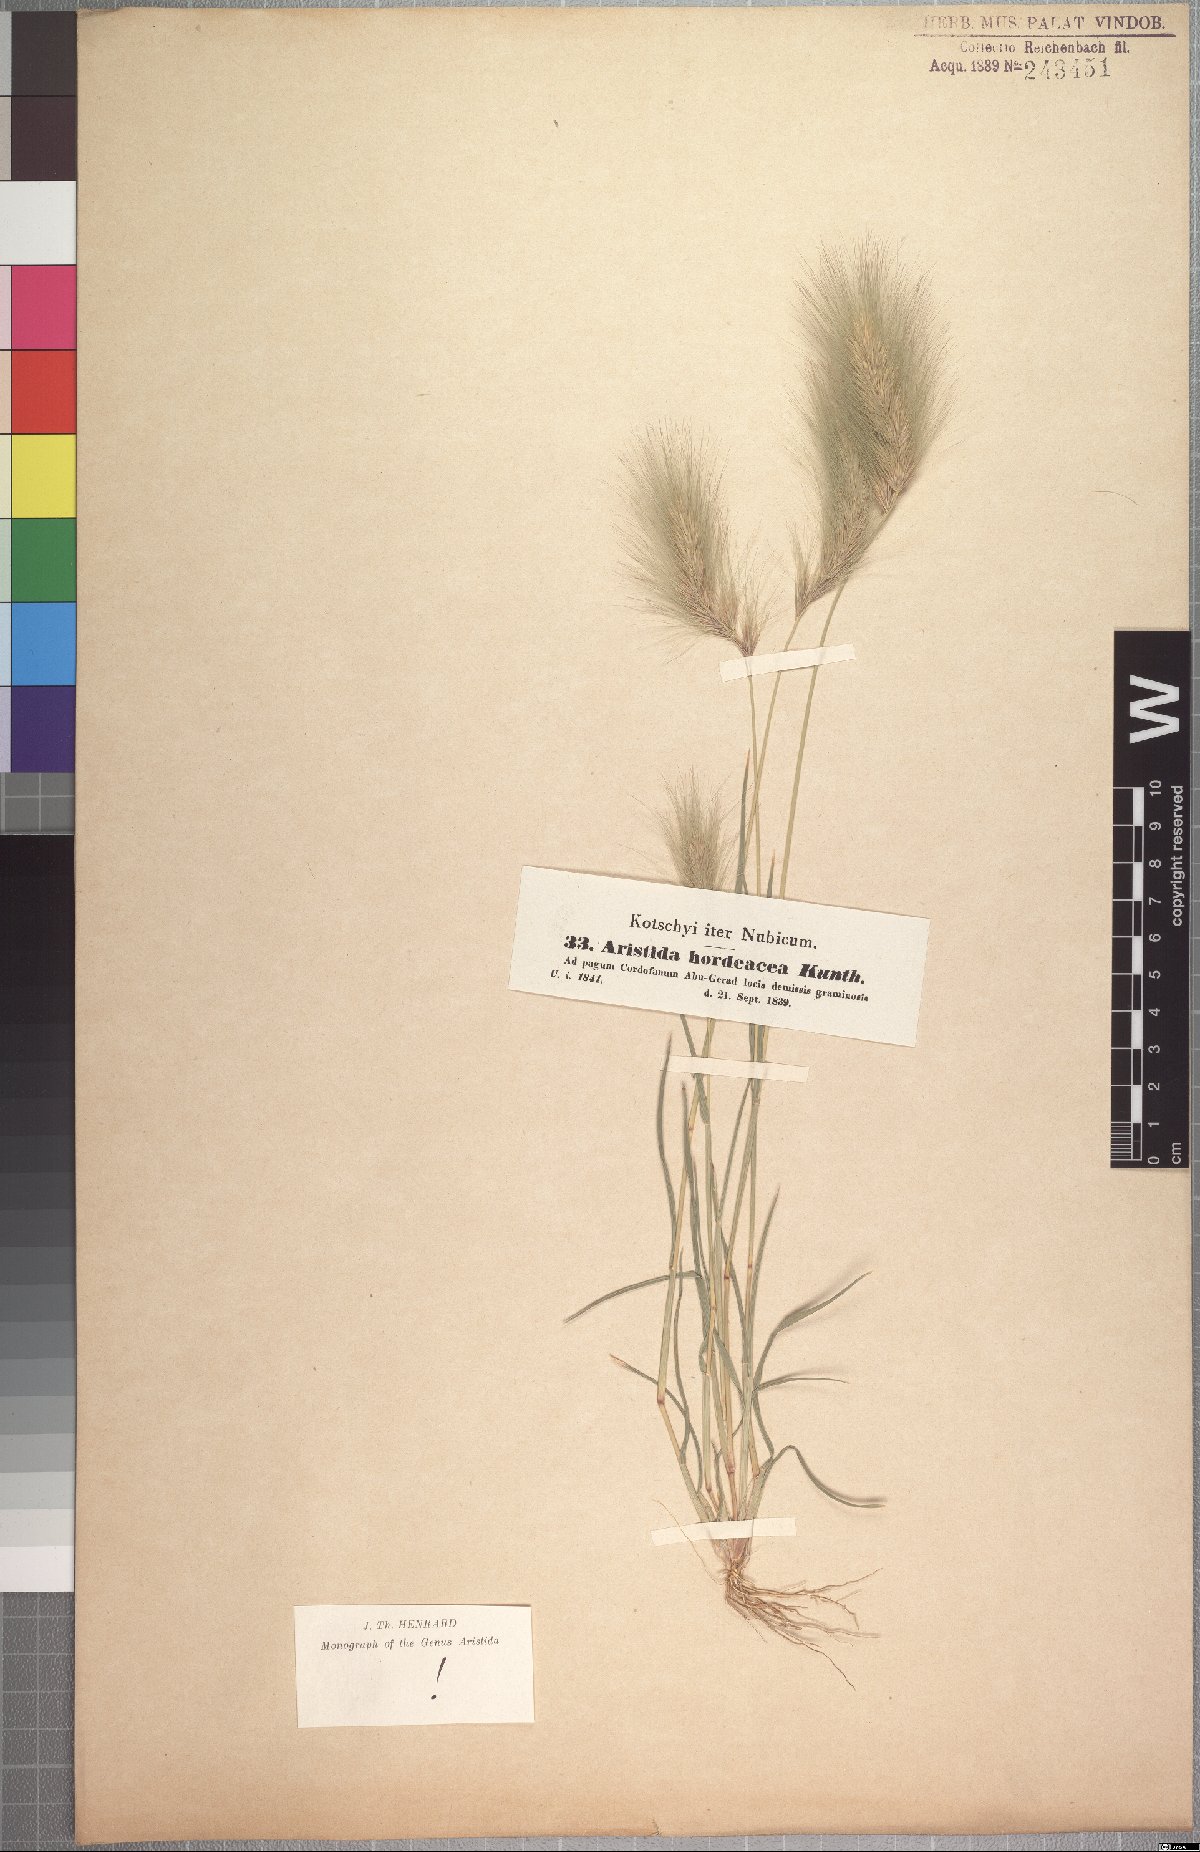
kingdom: Plantae
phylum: Tracheophyta
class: Liliopsida
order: Poales
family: Poaceae
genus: Aristida
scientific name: Aristida hordeacea
